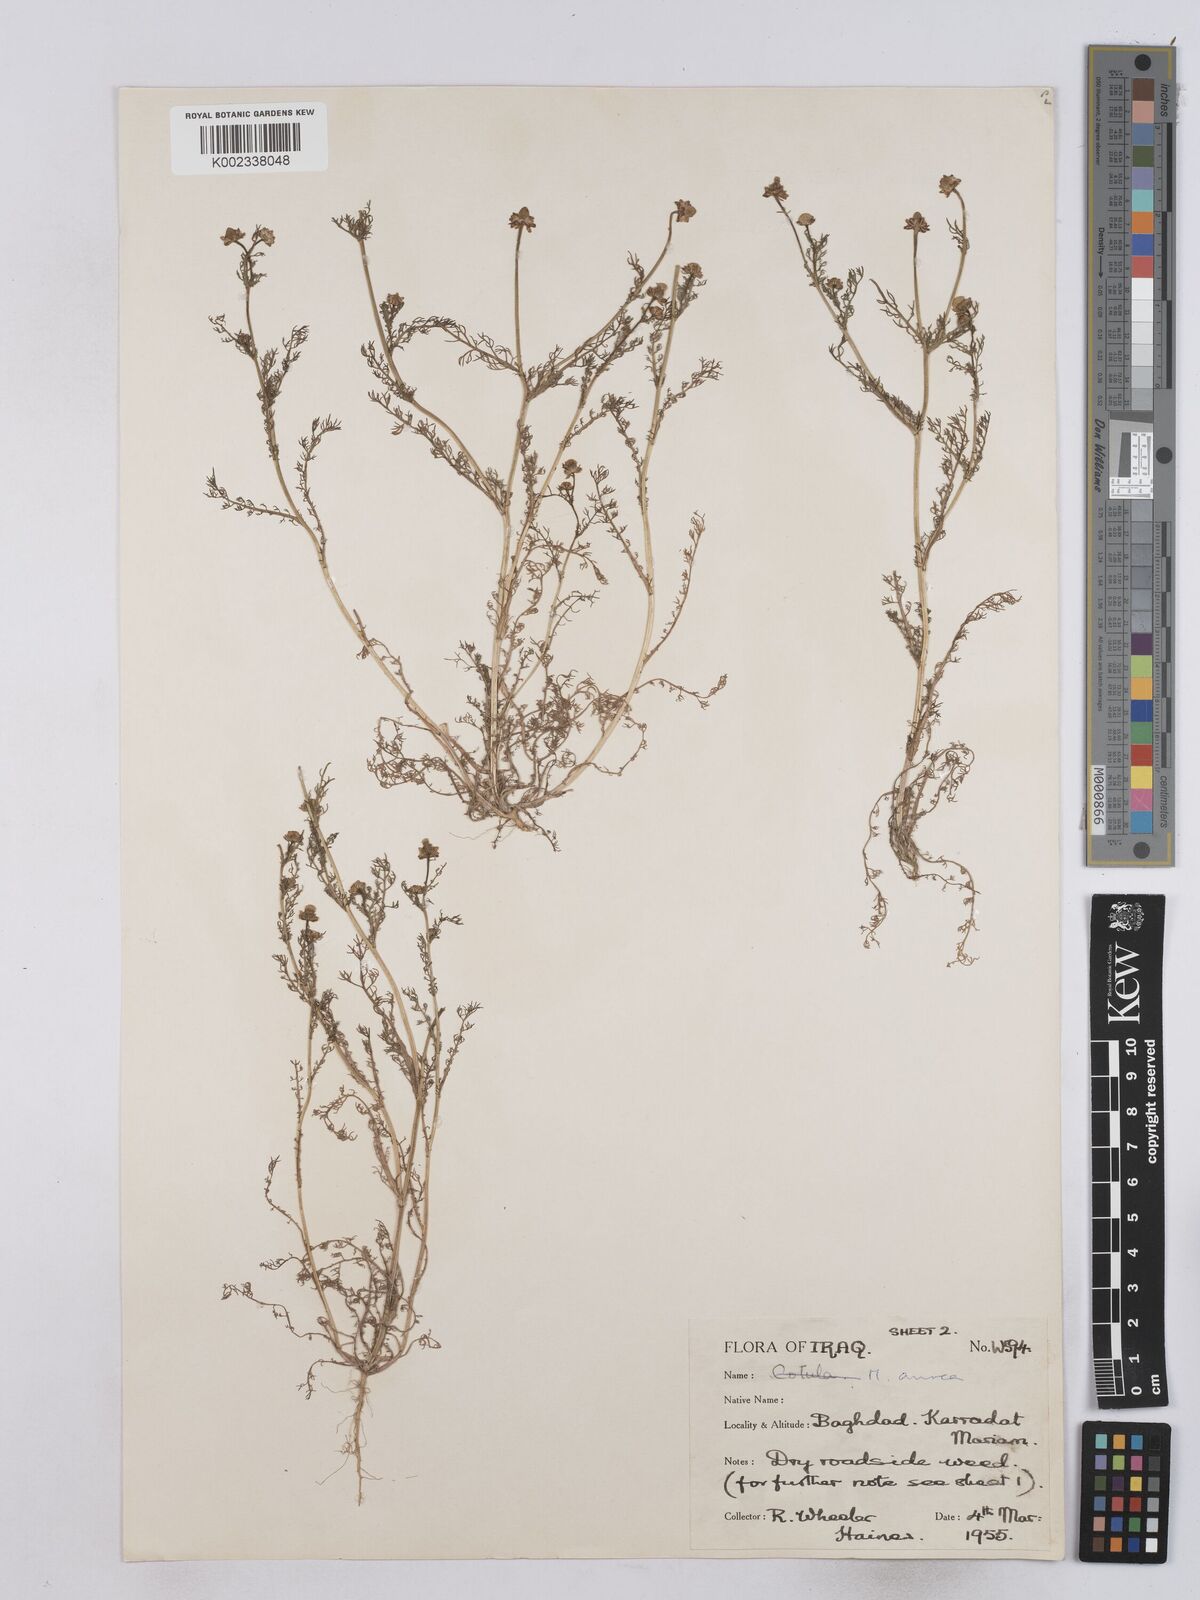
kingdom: Plantae
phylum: Tracheophyta
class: Magnoliopsida
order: Asterales
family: Asteraceae
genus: Matricaria
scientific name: Matricaria aurea
